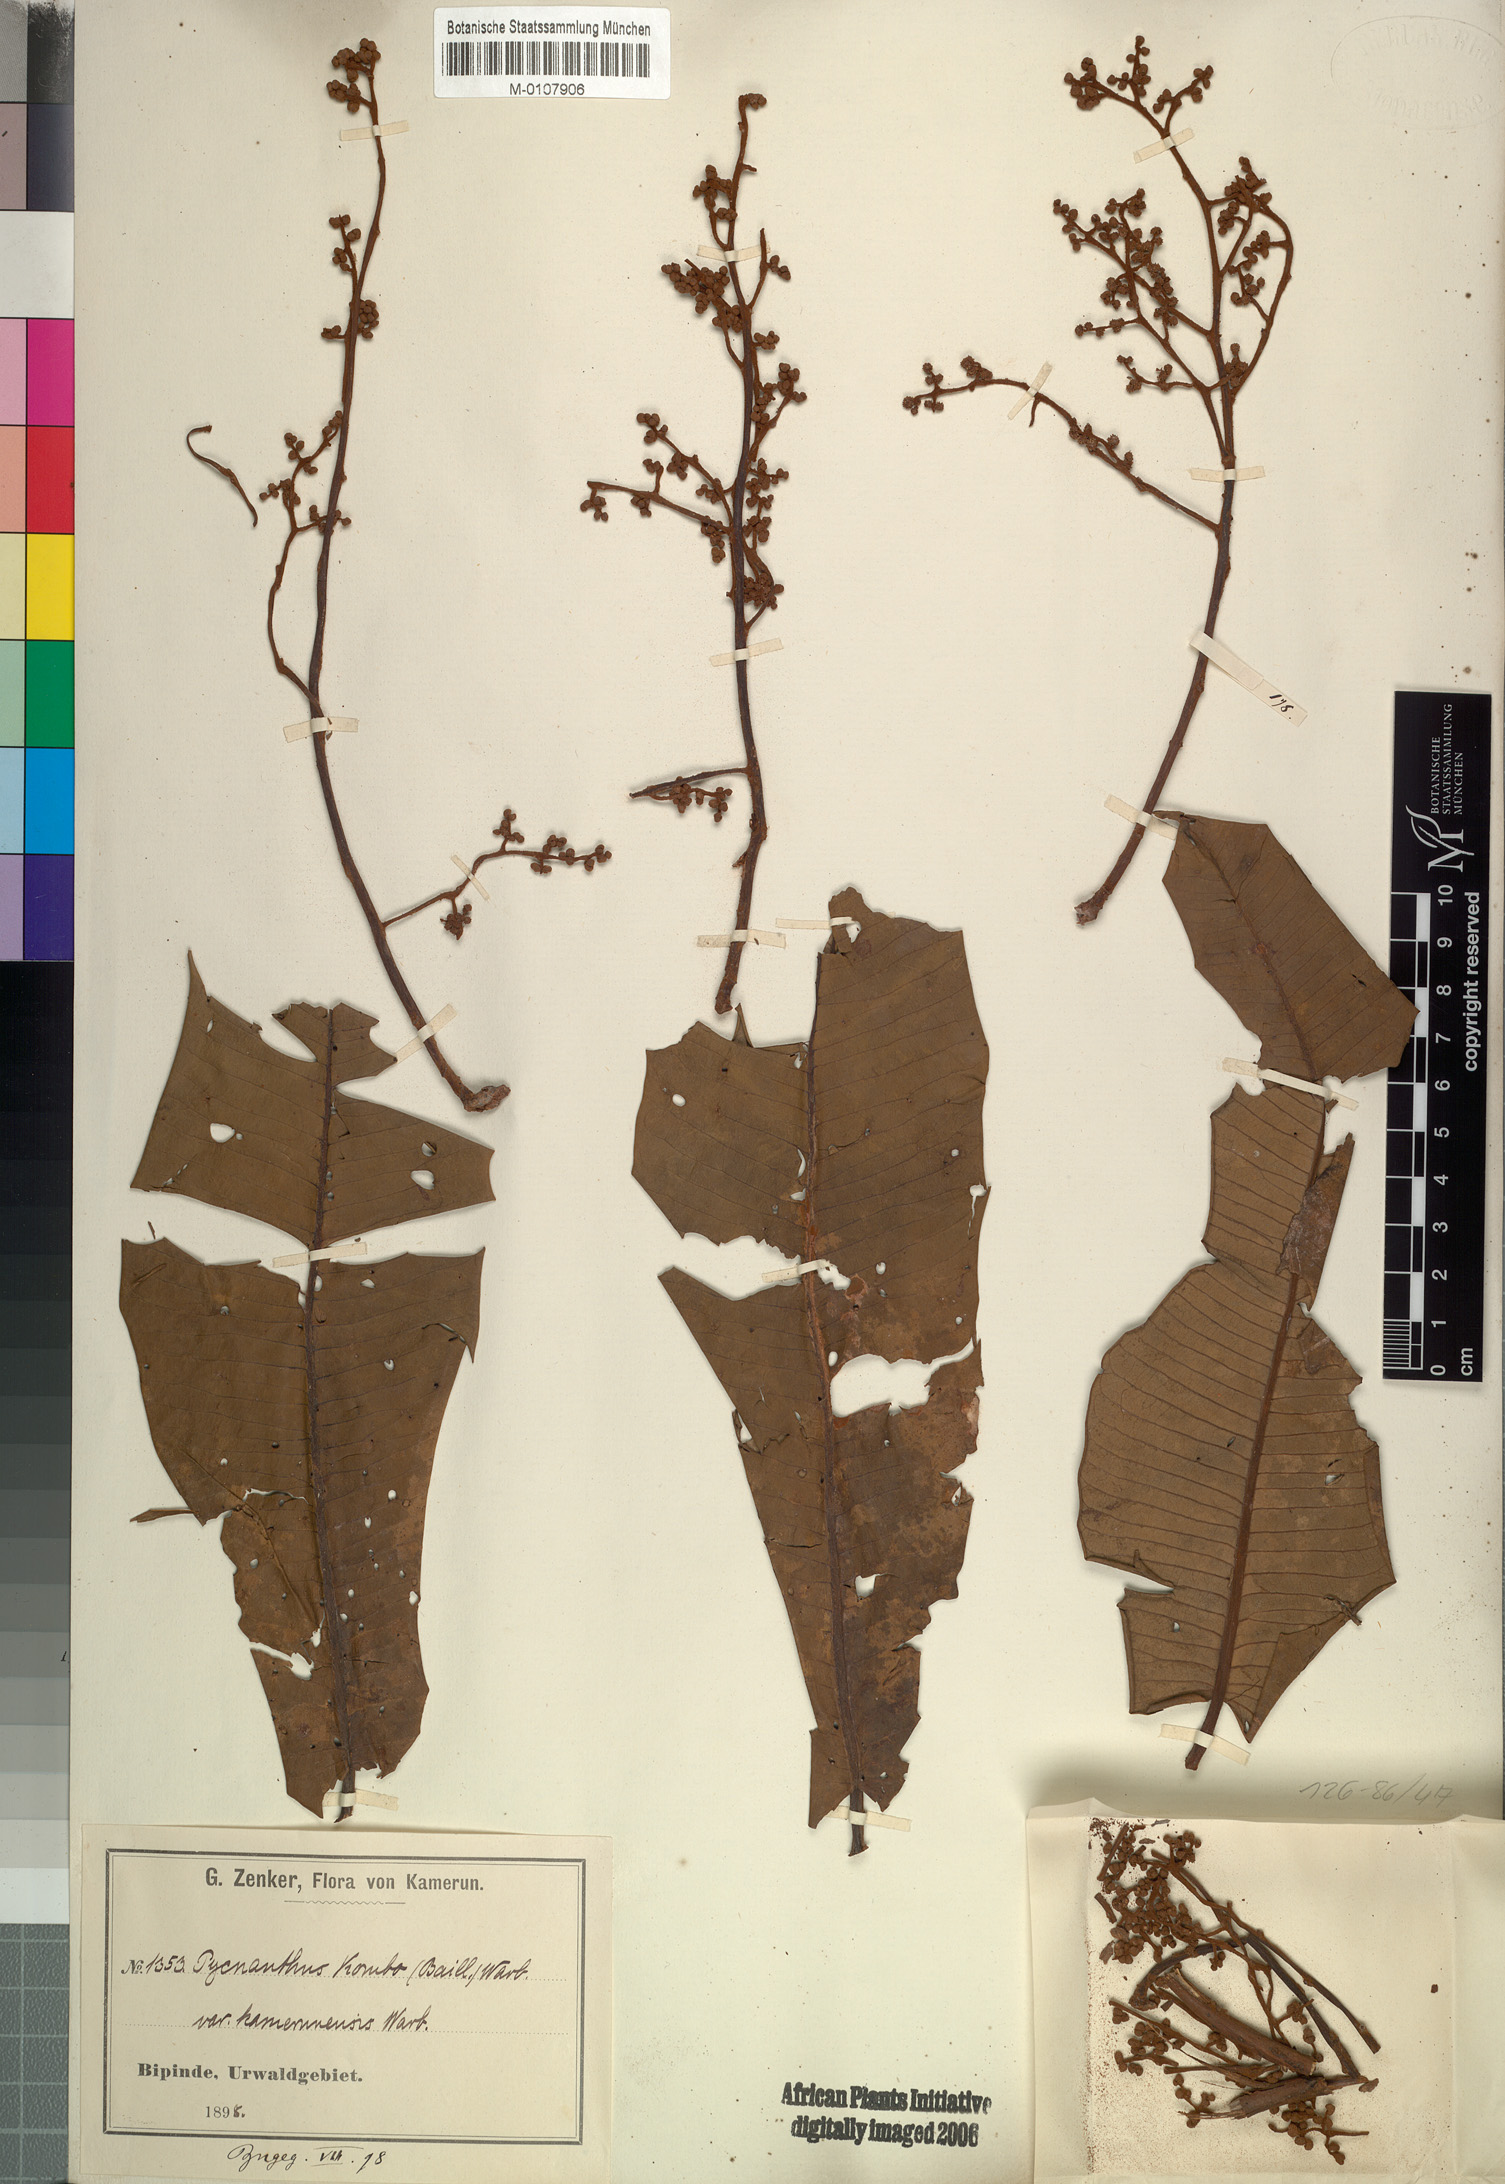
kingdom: Plantae
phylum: Tracheophyta
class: Magnoliopsida
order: Magnoliales
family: Myristicaceae
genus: Pycnanthus
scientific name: Pycnanthus microcephalus
